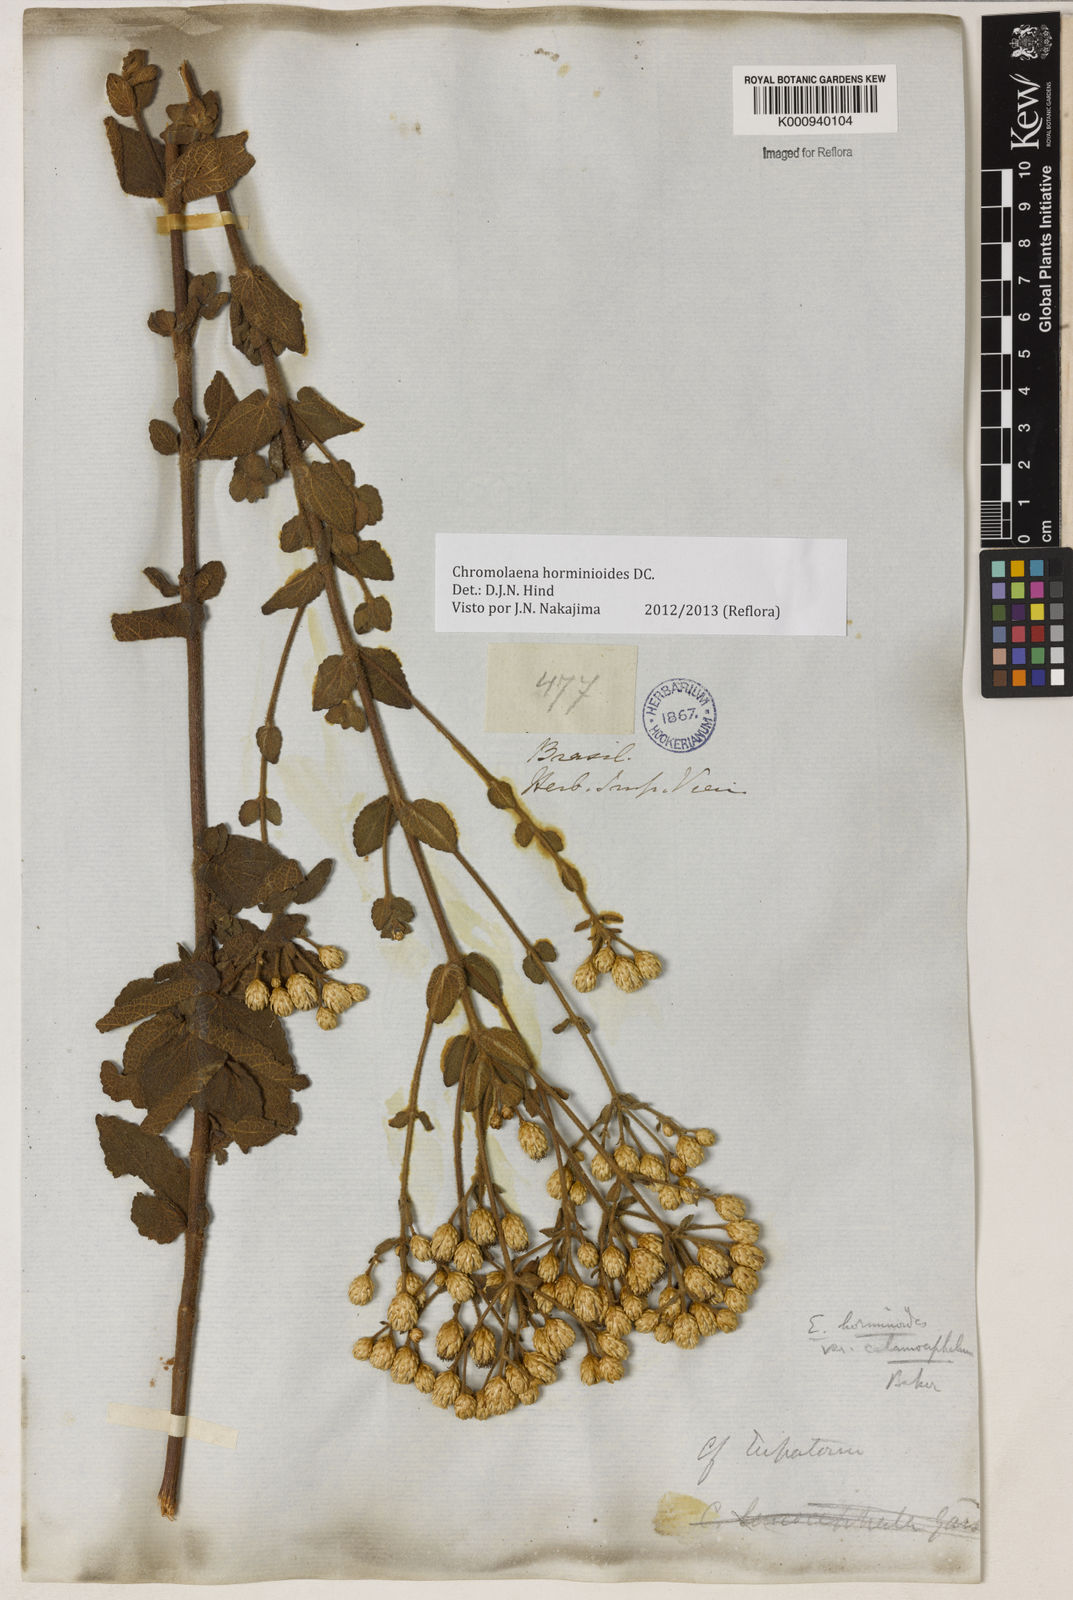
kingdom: Plantae
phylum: Tracheophyta
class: Magnoliopsida
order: Asterales
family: Asteraceae
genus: Chromolaena
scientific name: Chromolaena horminoides
